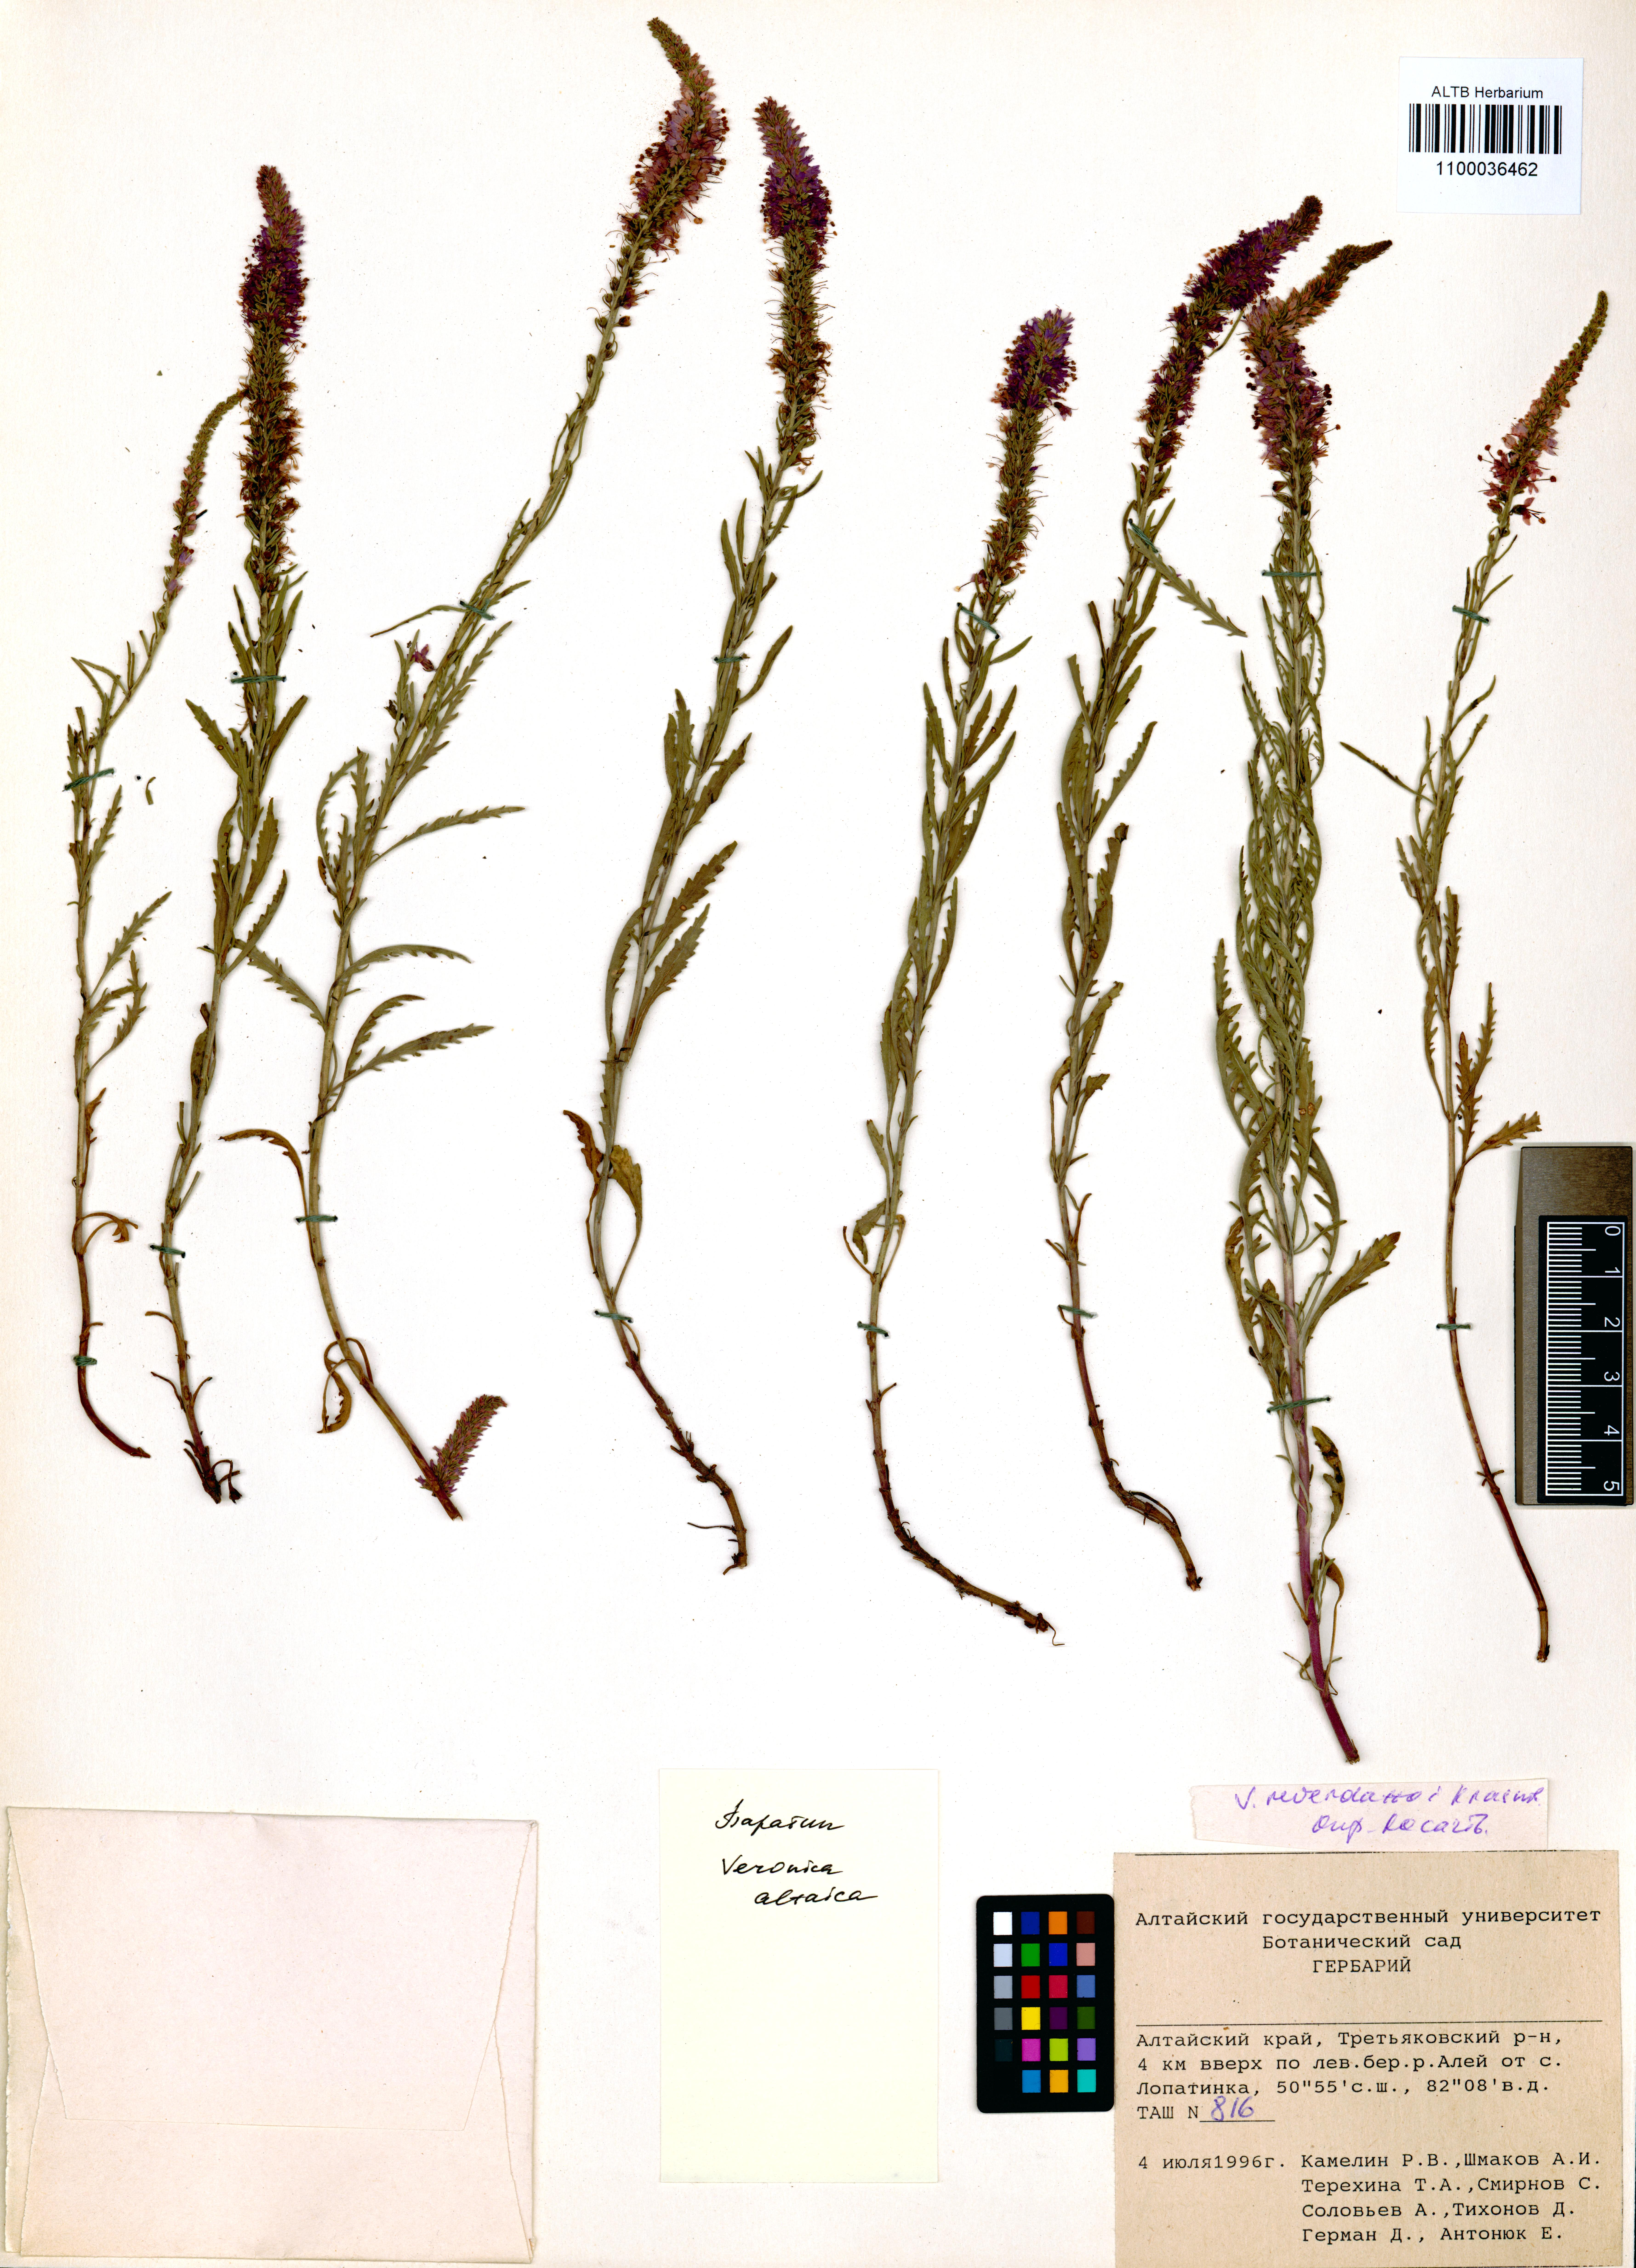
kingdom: Plantae
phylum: Tracheophyta
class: Magnoliopsida
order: Lamiales
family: Plantaginaceae
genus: Veronica
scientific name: Veronica altaica
